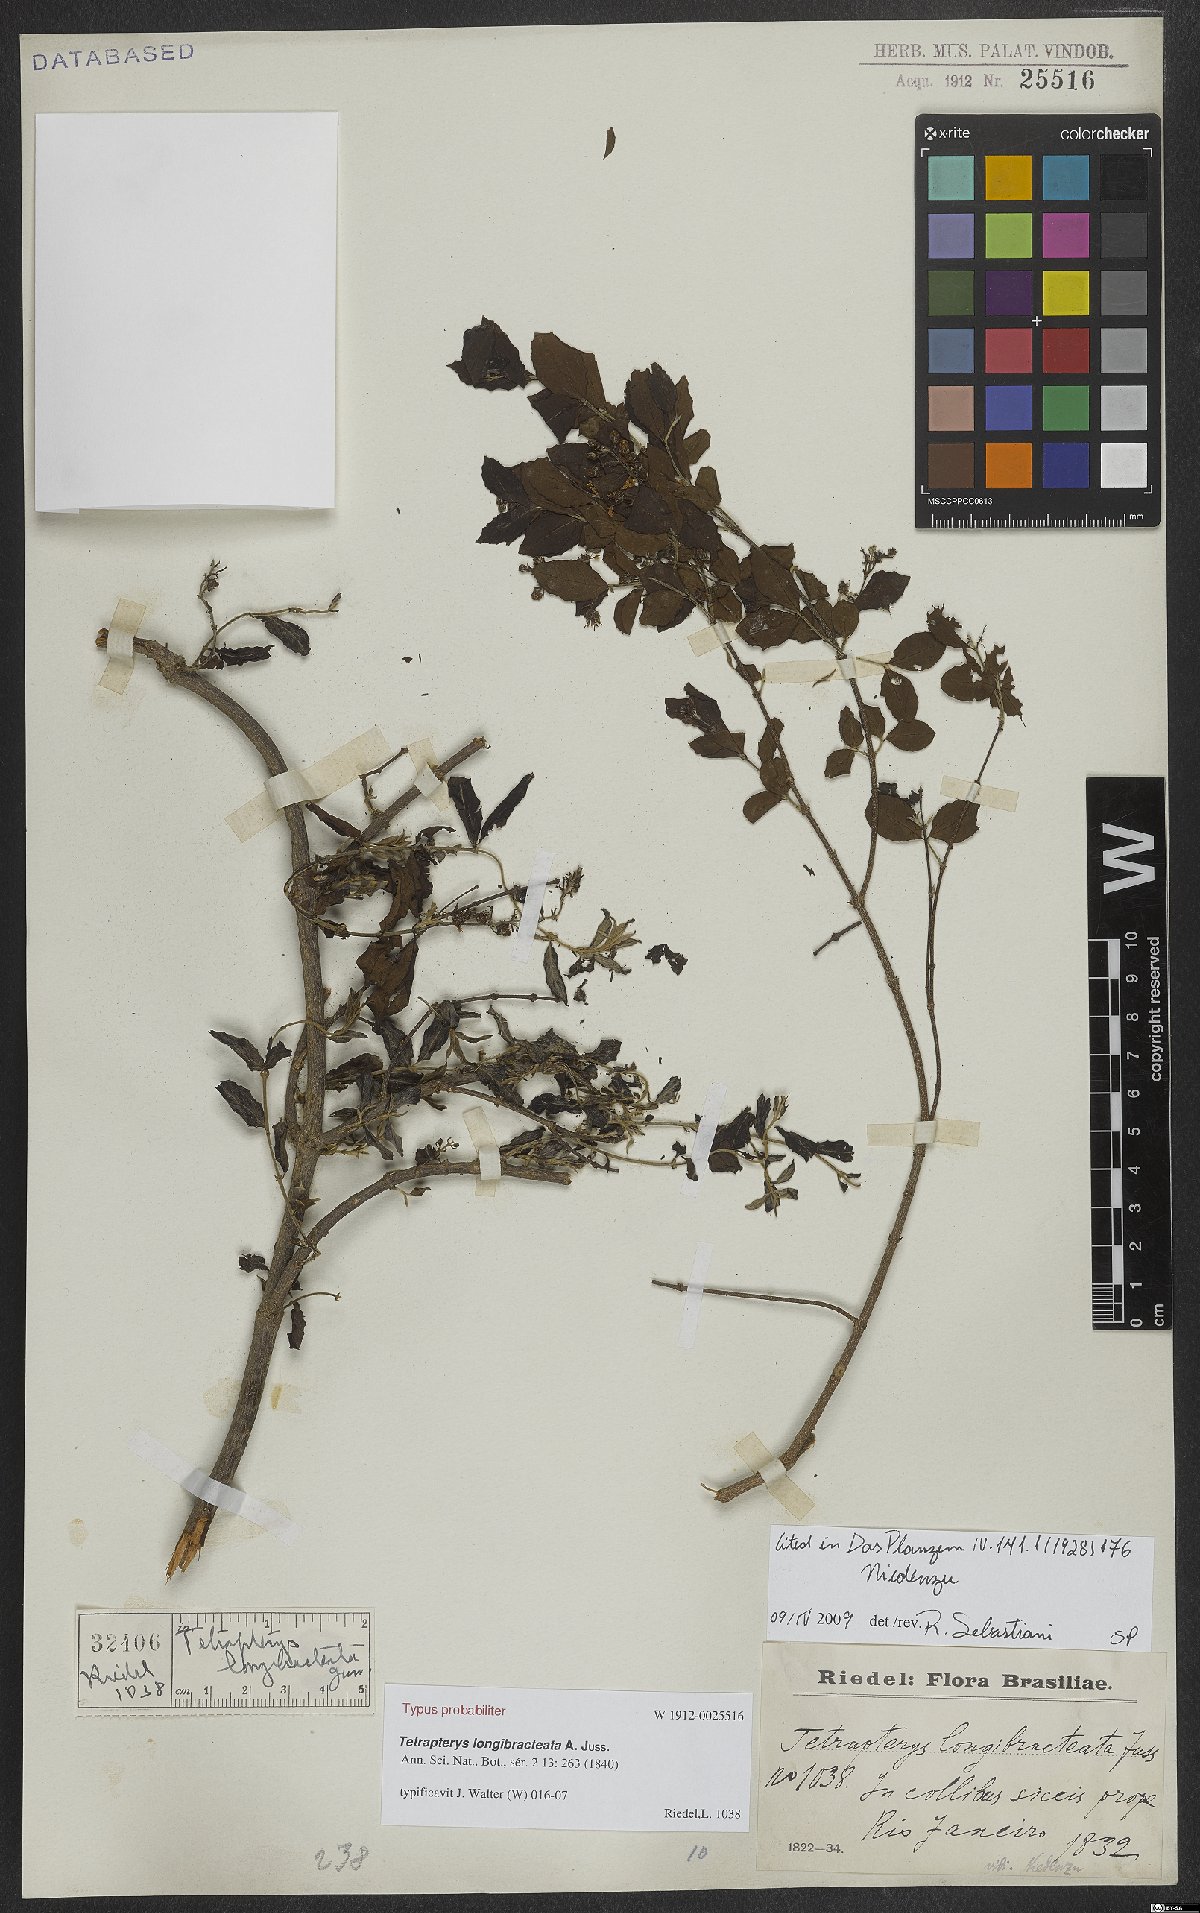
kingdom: Plantae
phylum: Tracheophyta
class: Magnoliopsida
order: Malpighiales
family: Malpighiaceae
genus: Glicophyllum
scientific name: Glicophyllum longibracteatum
